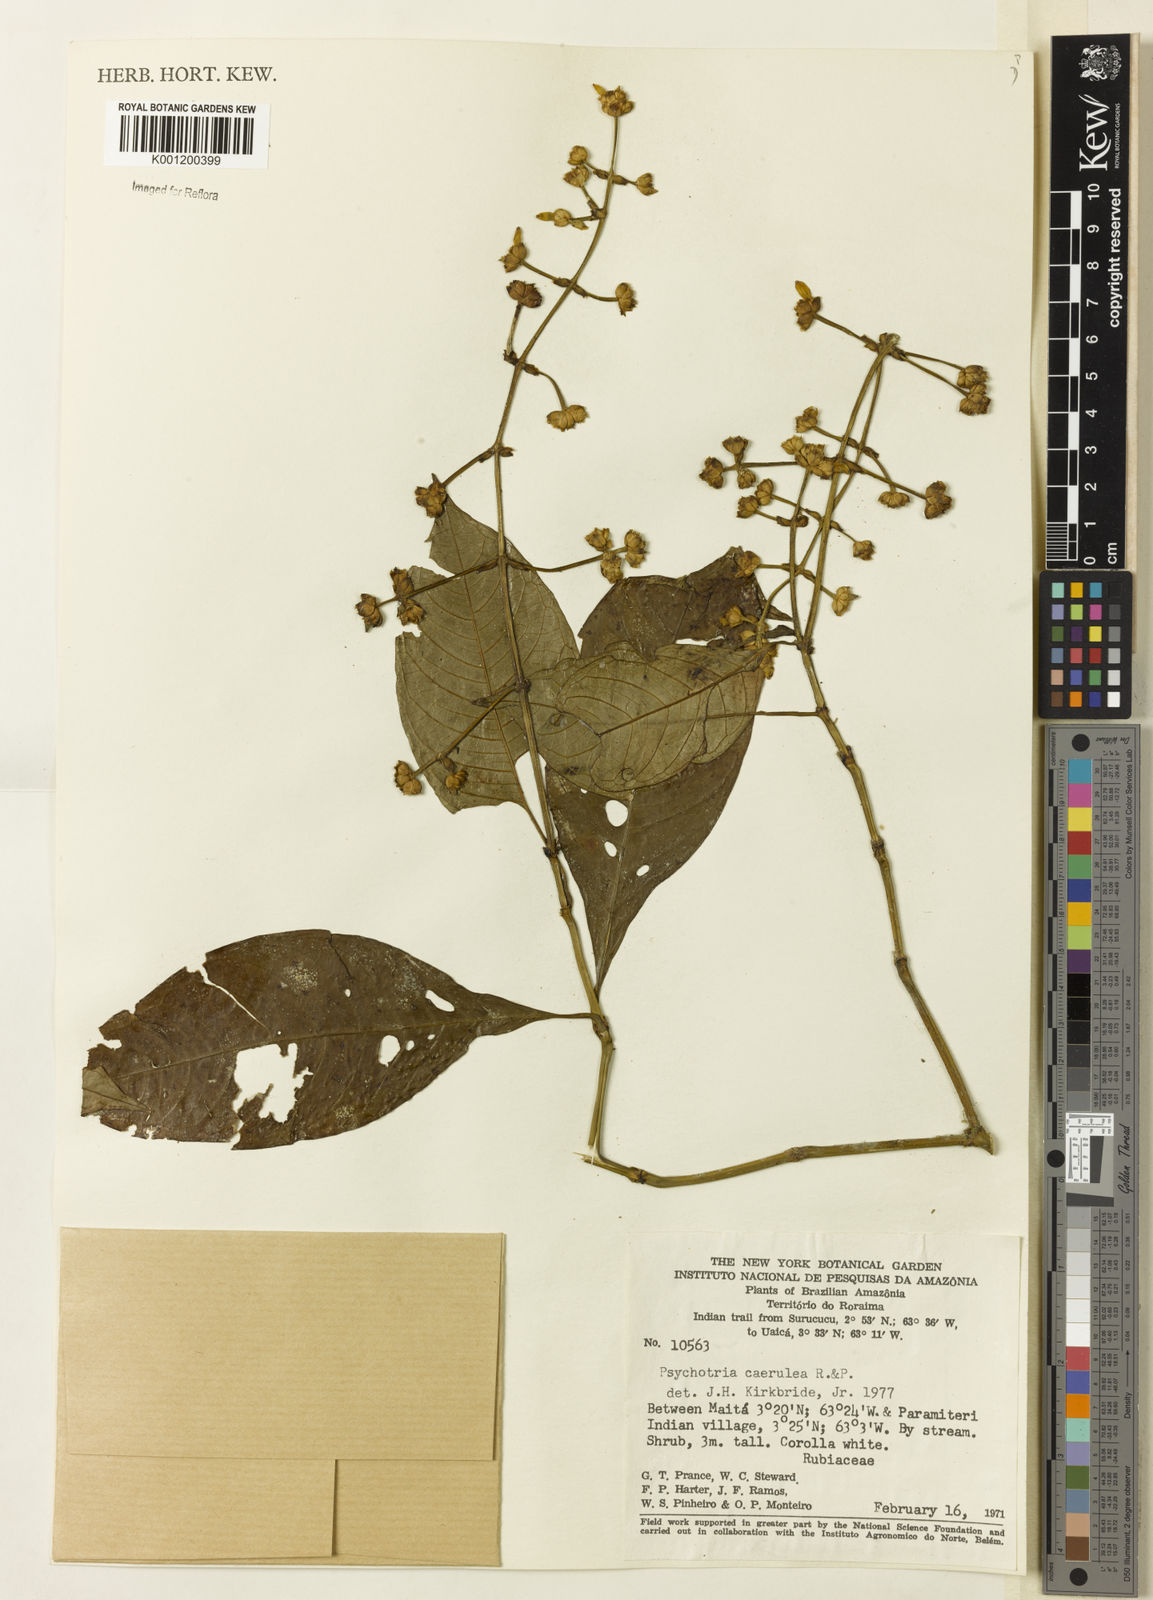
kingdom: Plantae
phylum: Tracheophyta
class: Magnoliopsida
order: Gentianales
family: Rubiaceae
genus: Palicourea
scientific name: Palicourea caerulea
